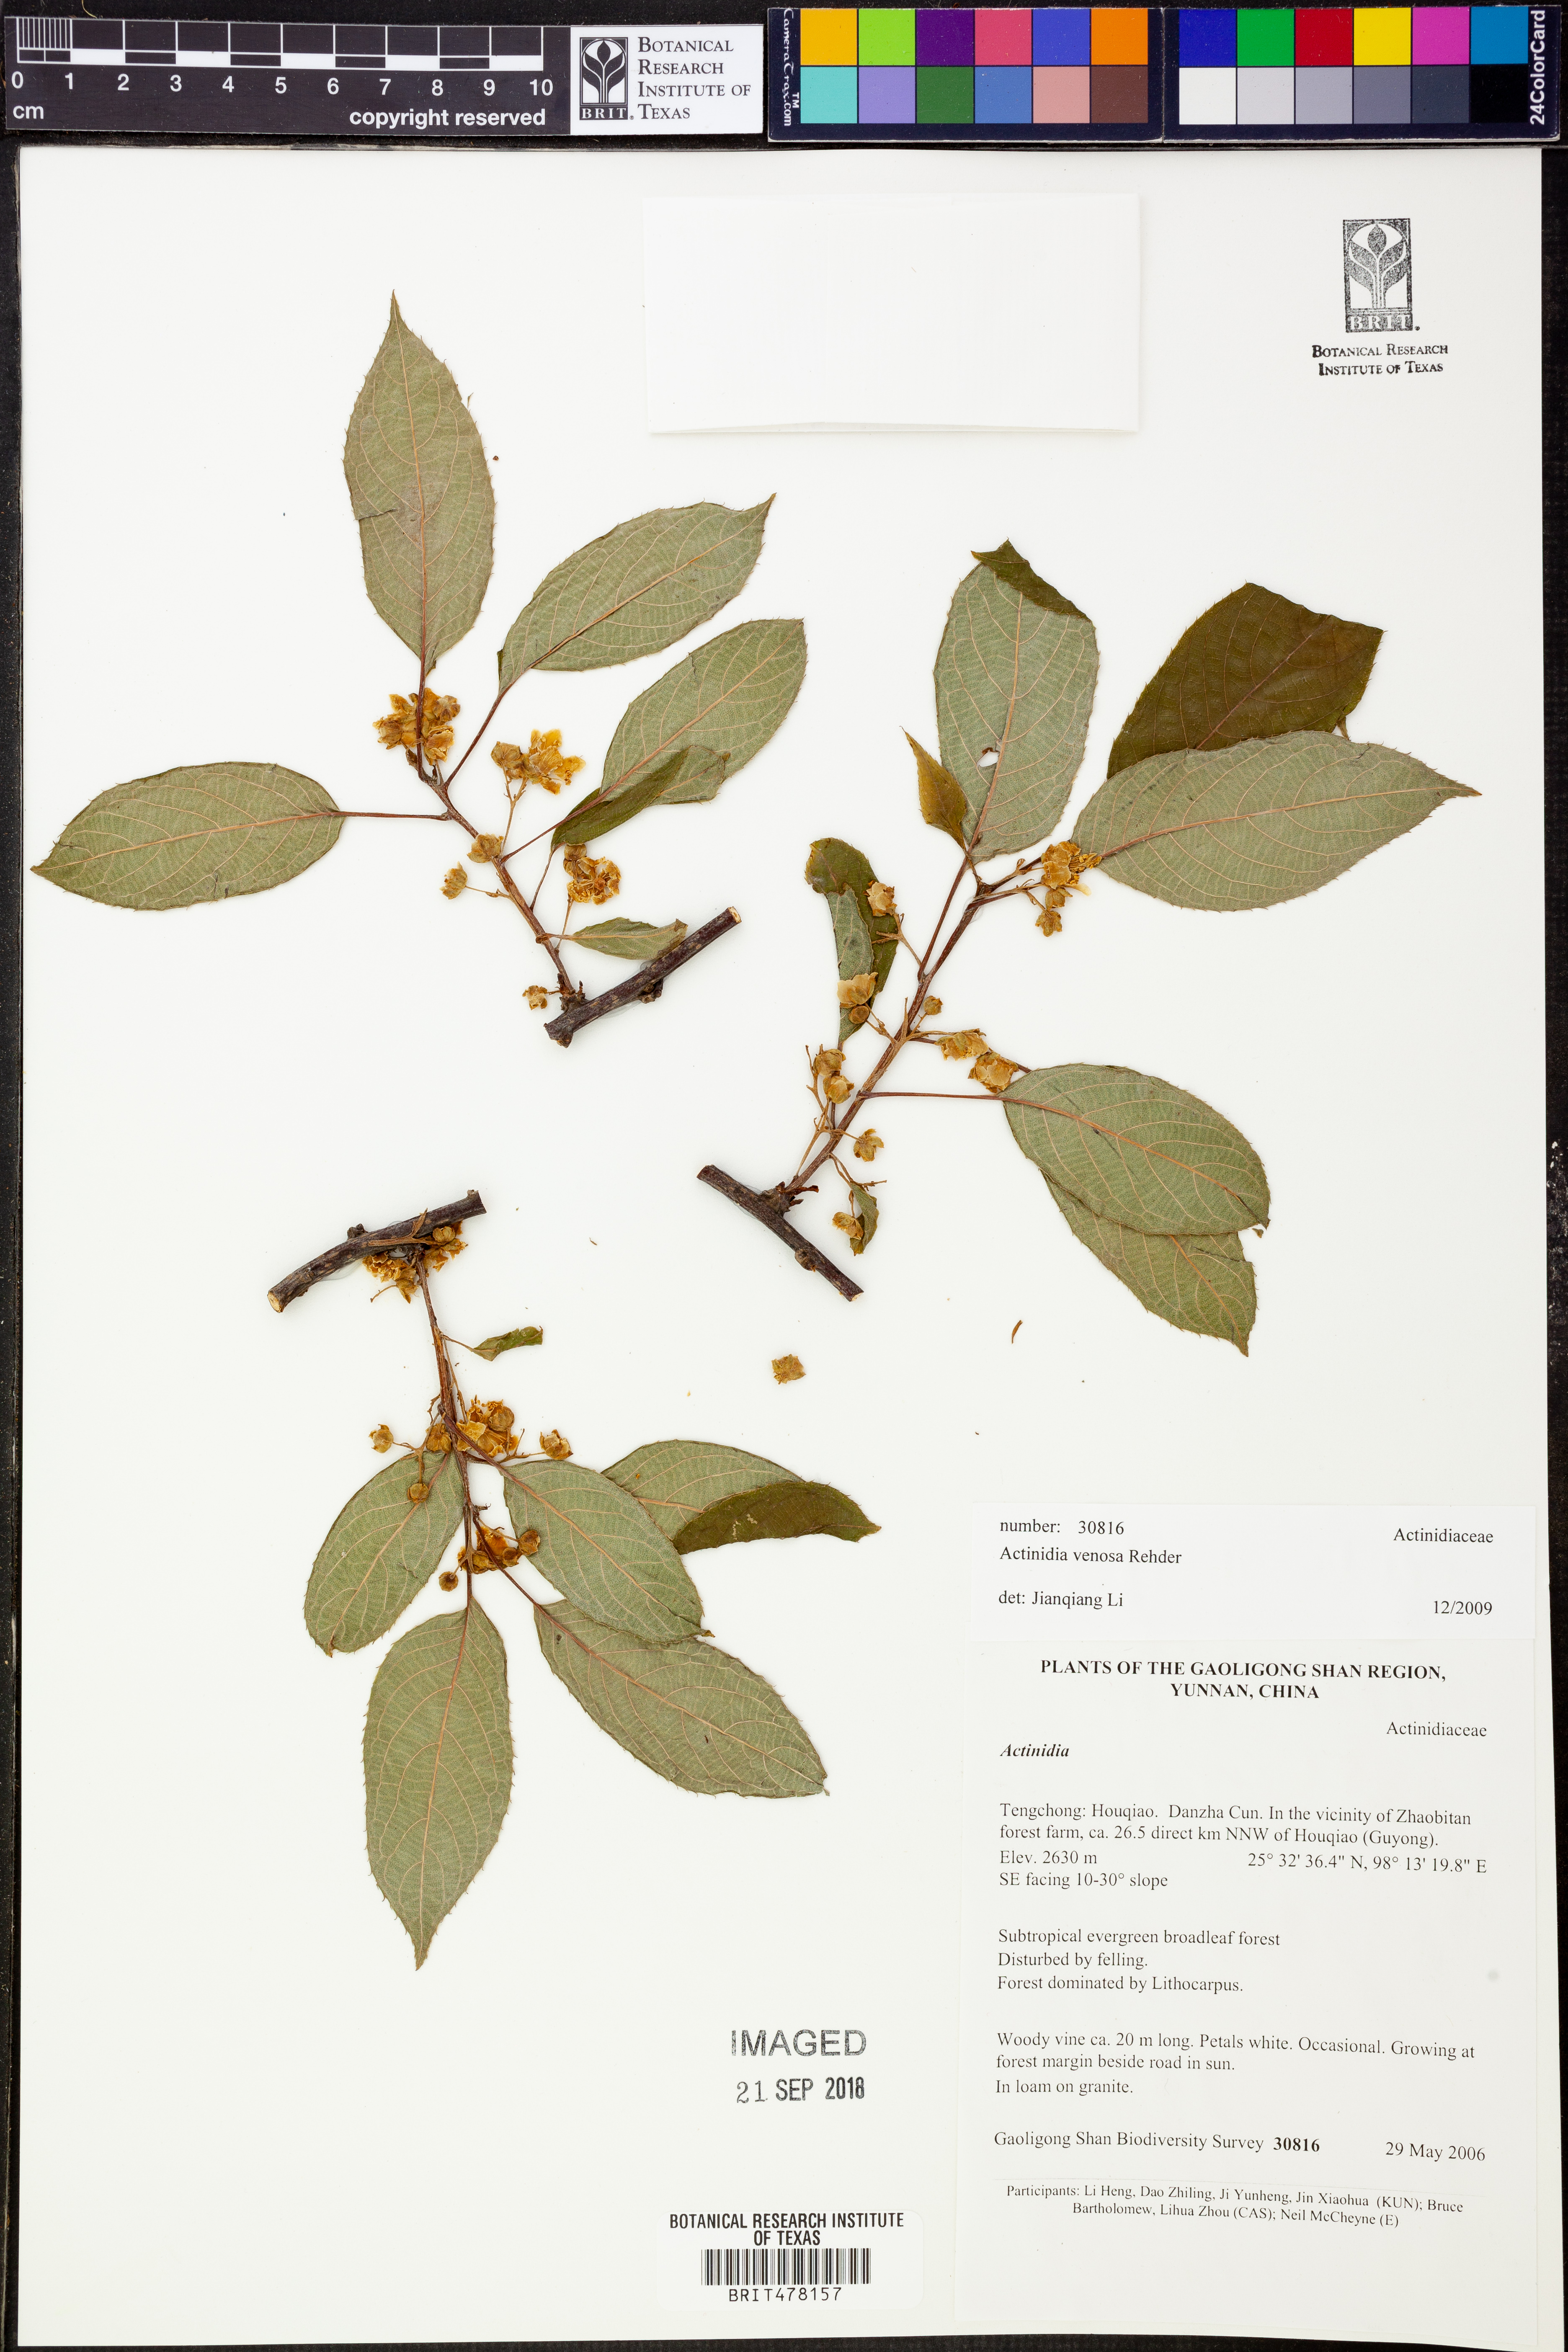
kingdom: Plantae
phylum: Tracheophyta
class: Magnoliopsida
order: Ericales
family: Actinidiaceae
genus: Actinidia
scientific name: Actinidia venosa
